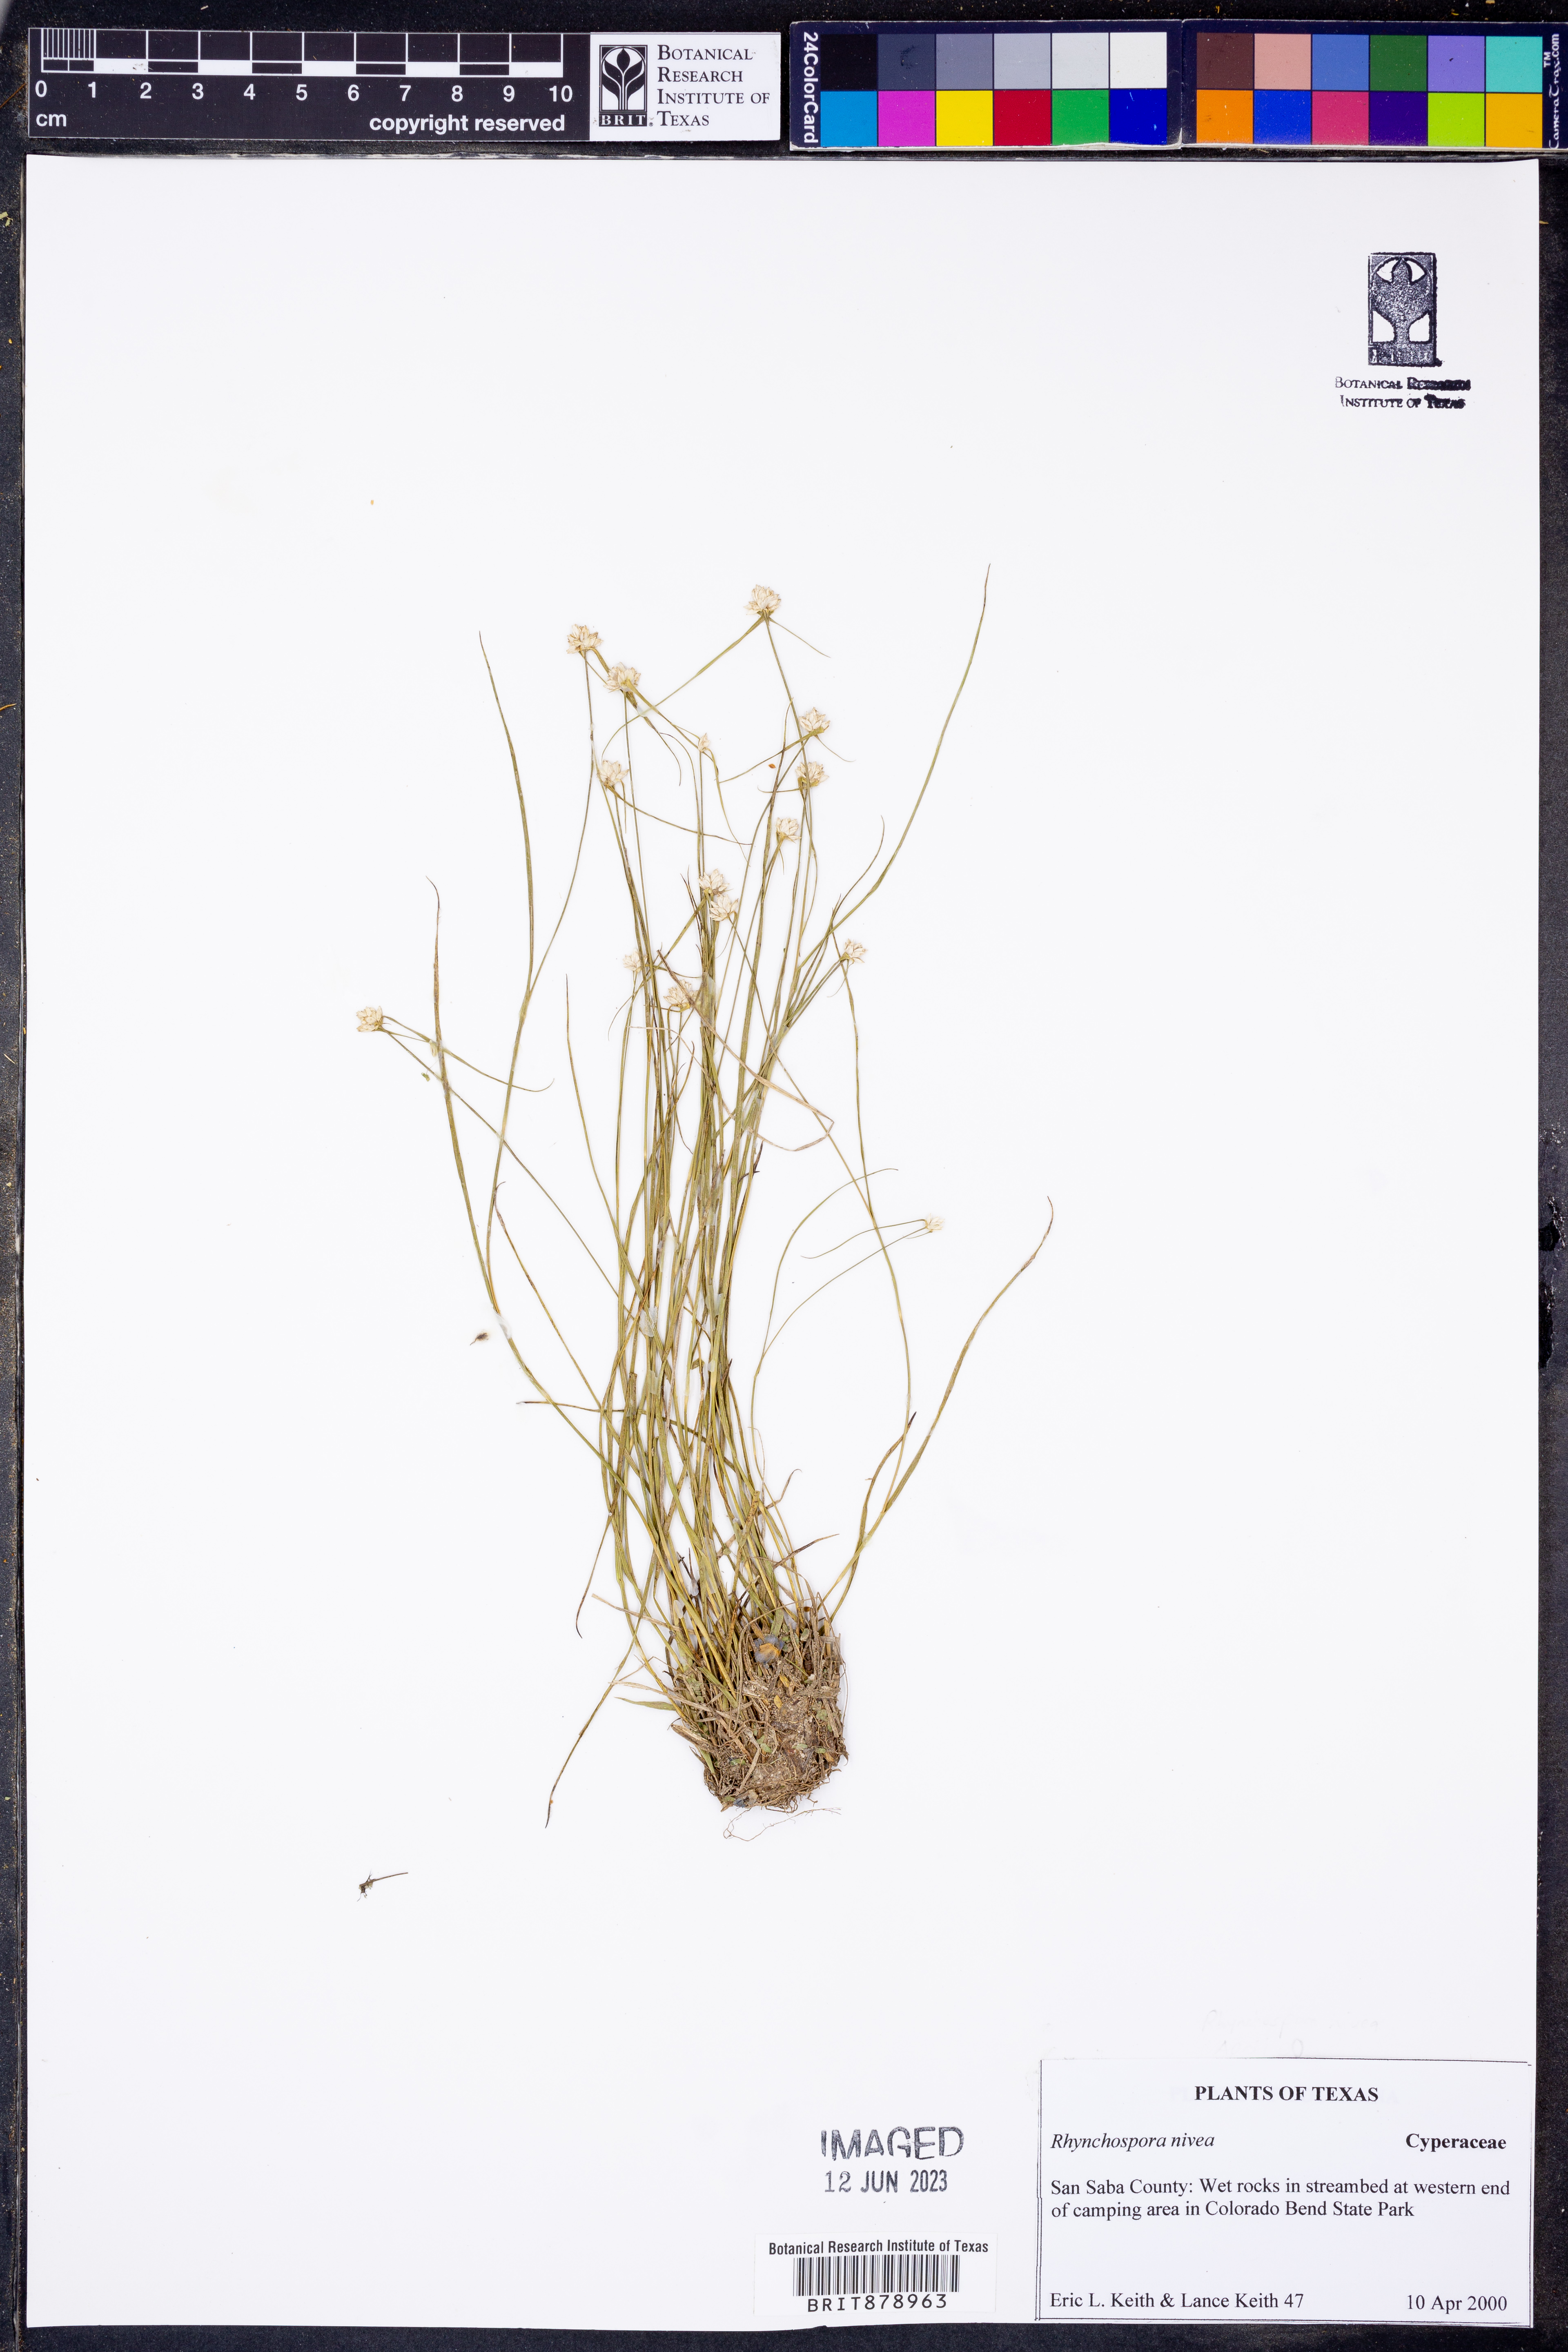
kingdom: Plantae
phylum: Tracheophyta
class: Liliopsida
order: Poales
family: Cyperaceae
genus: Rhynchospora
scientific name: Rhynchospora nivea
